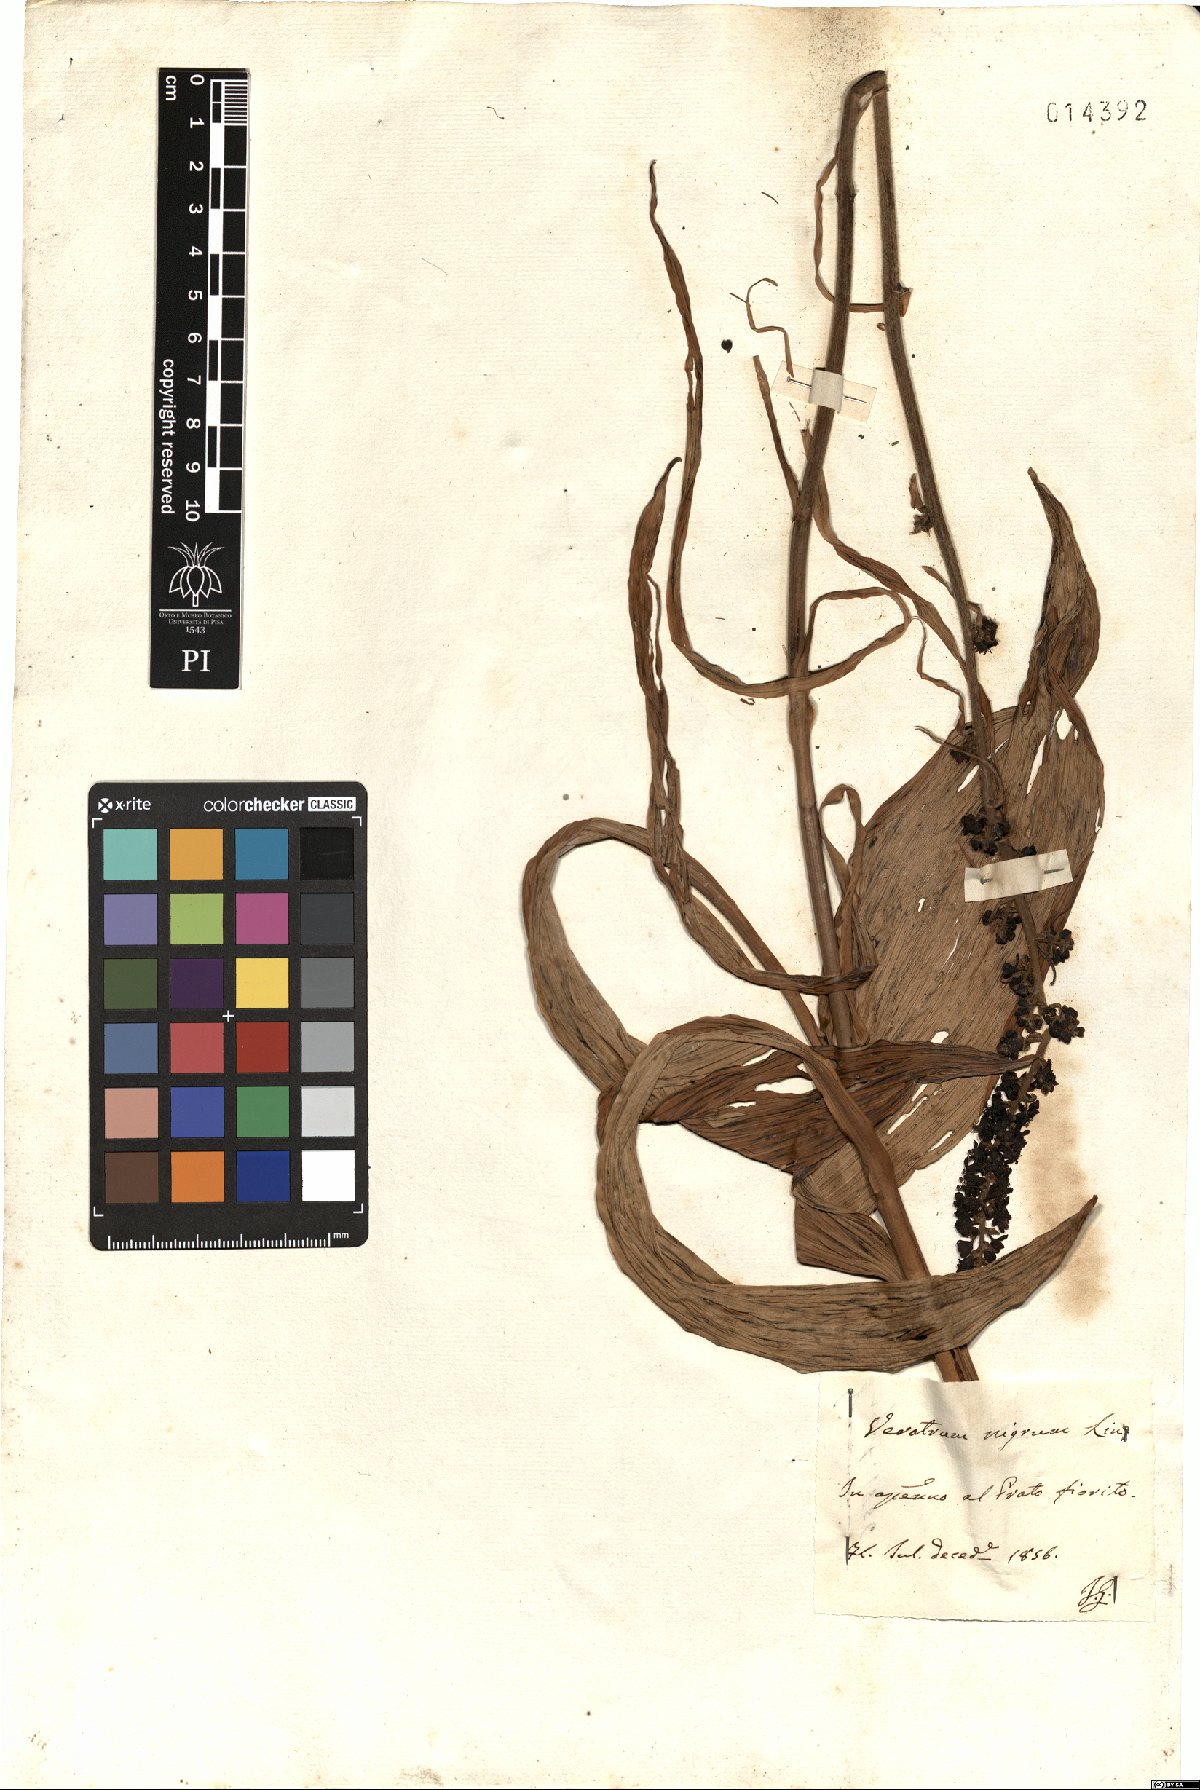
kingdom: Plantae
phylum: Tracheophyta
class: Liliopsida
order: Liliales
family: Melanthiaceae
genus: Veratrum
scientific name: Veratrum nigrum
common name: Black veratrum
